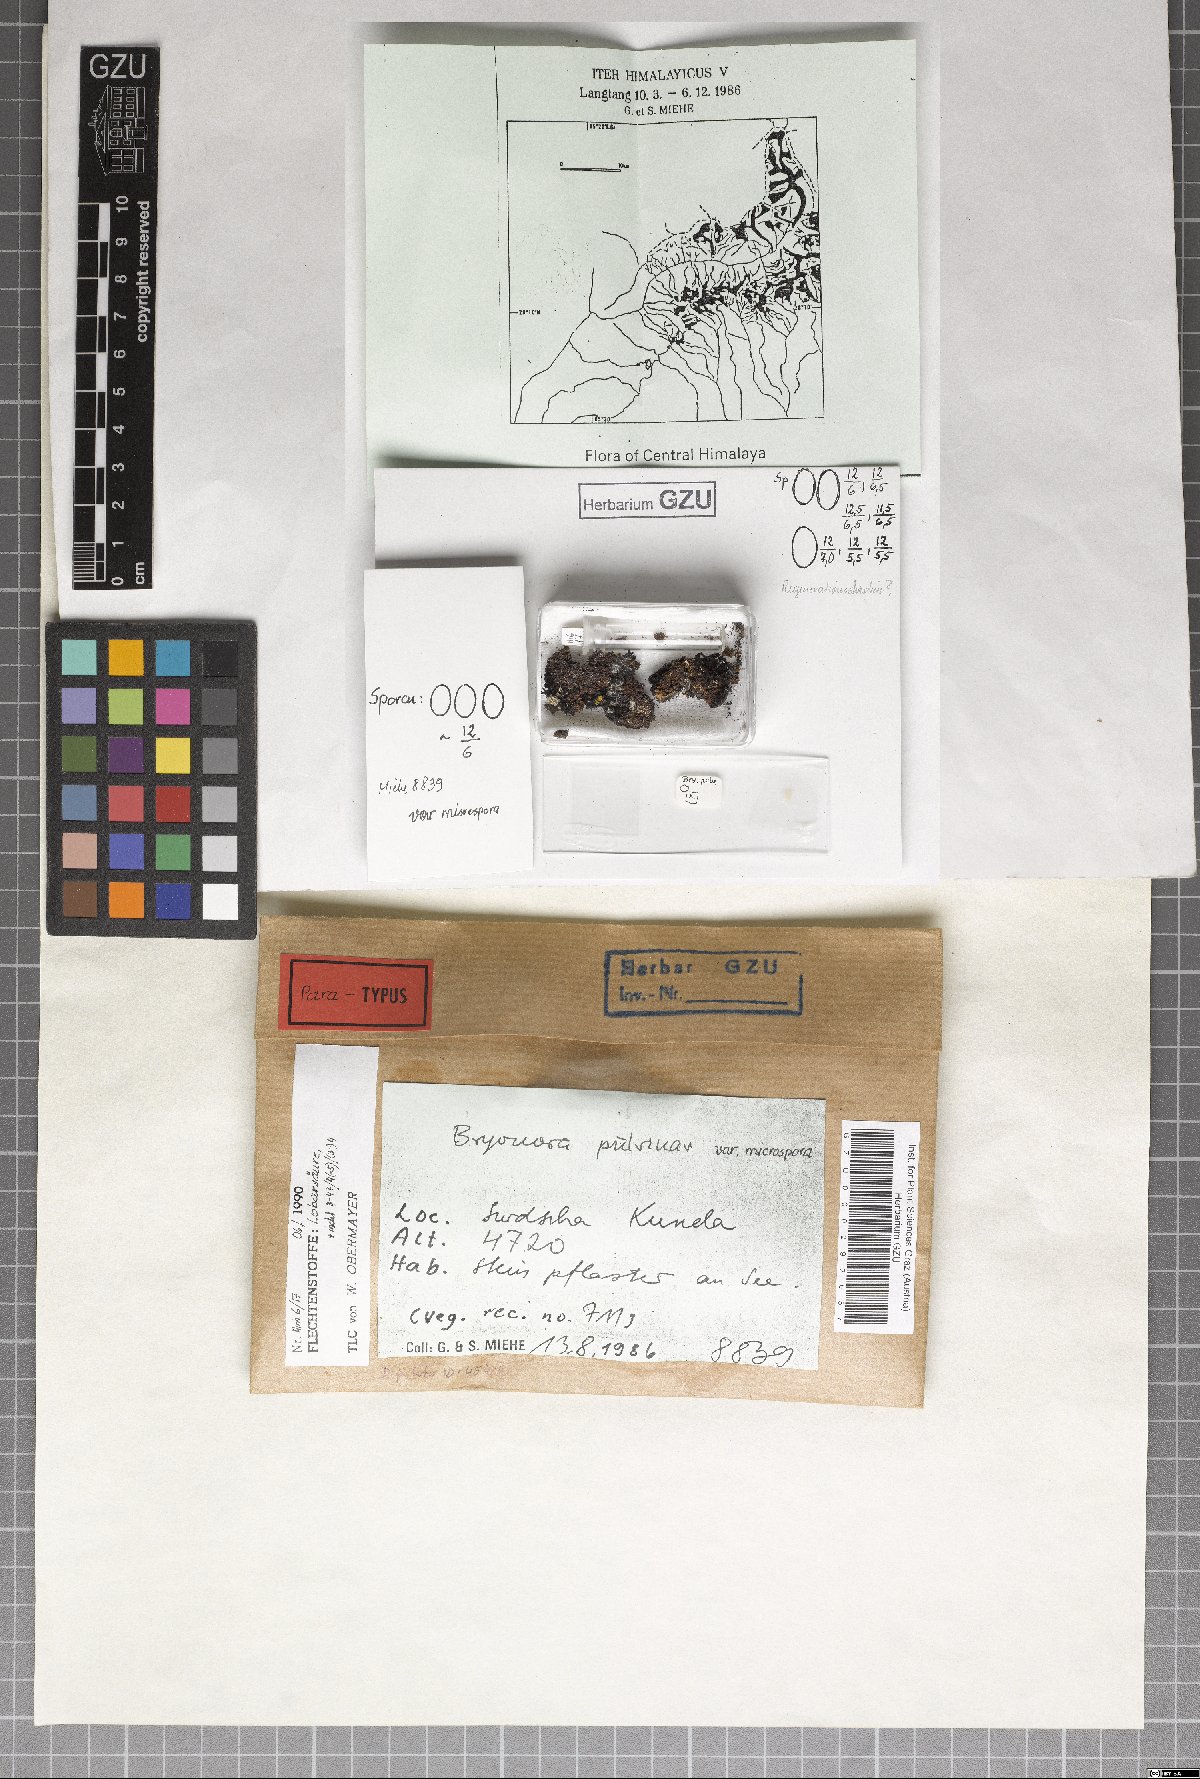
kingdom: Fungi
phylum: Ascomycota
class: Lecanoromycetes
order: Lecanorales
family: Lecanoraceae
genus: Bryonora
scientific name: Bryonora pulvinar
